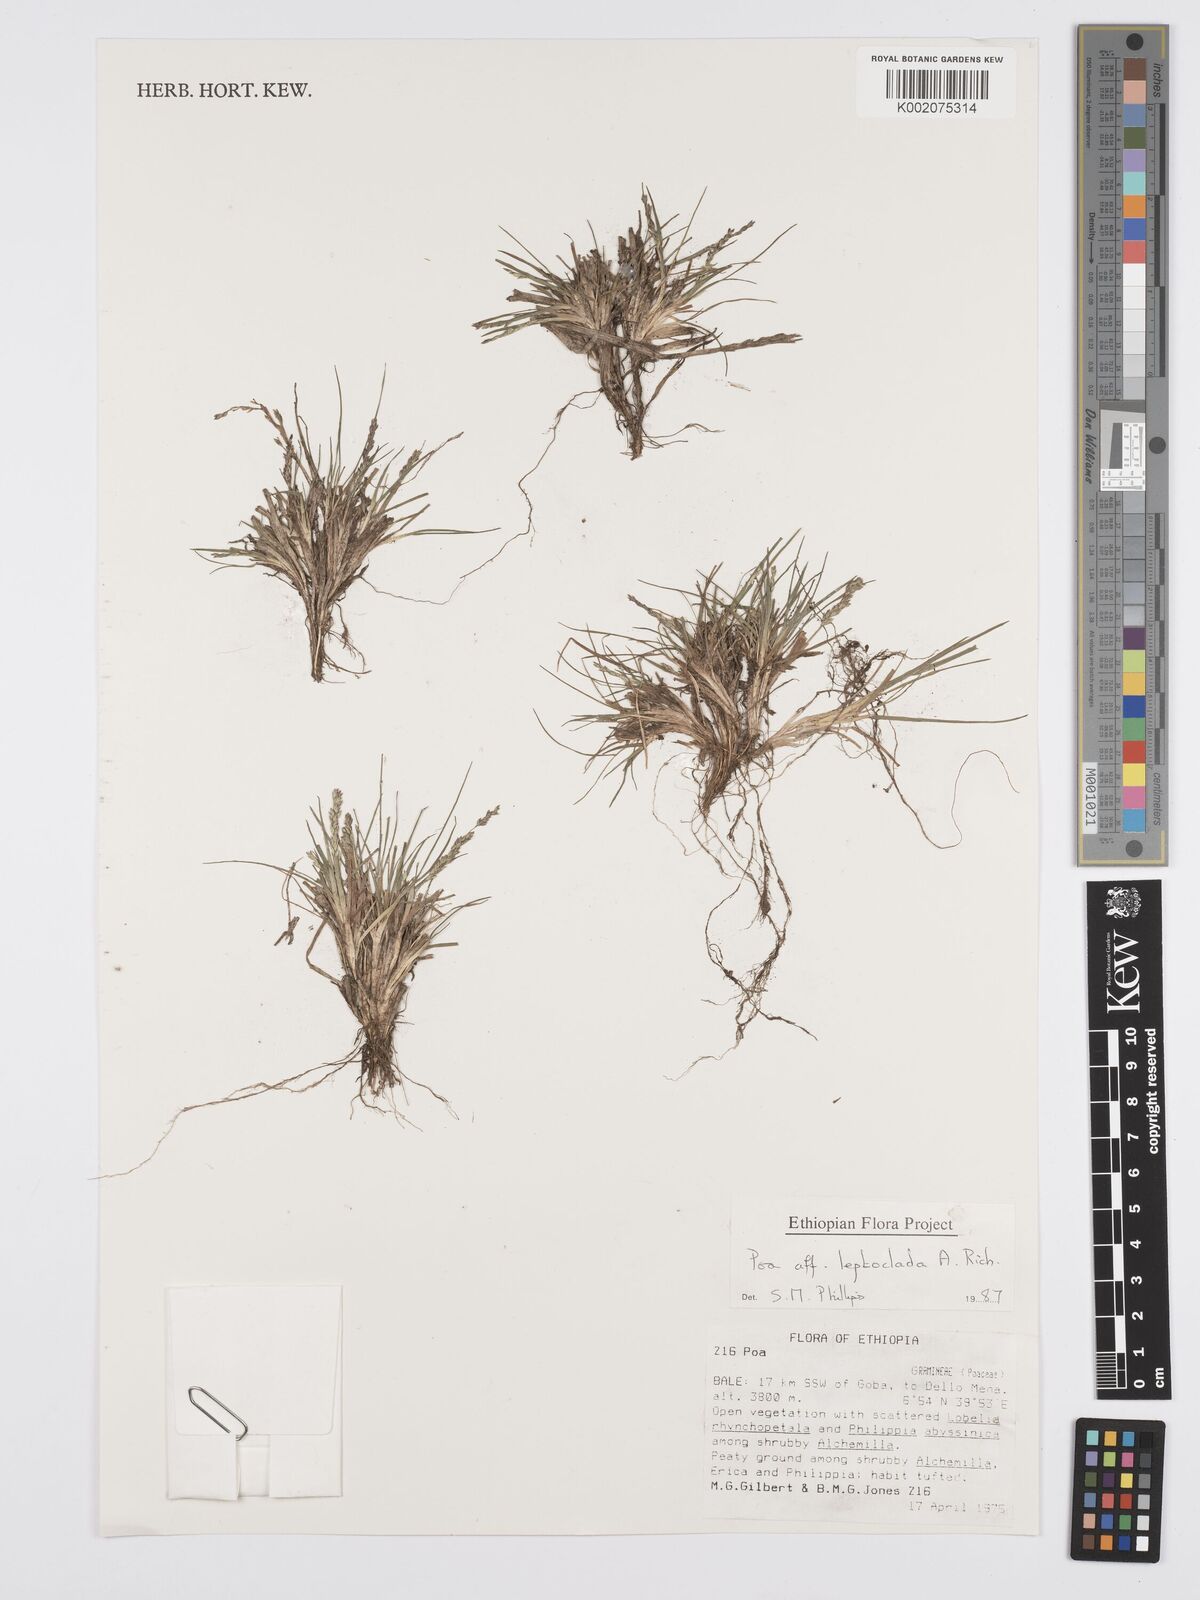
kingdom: Plantae
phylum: Tracheophyta
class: Liliopsida
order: Poales
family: Poaceae
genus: Poa
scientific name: Poa leptoclada
